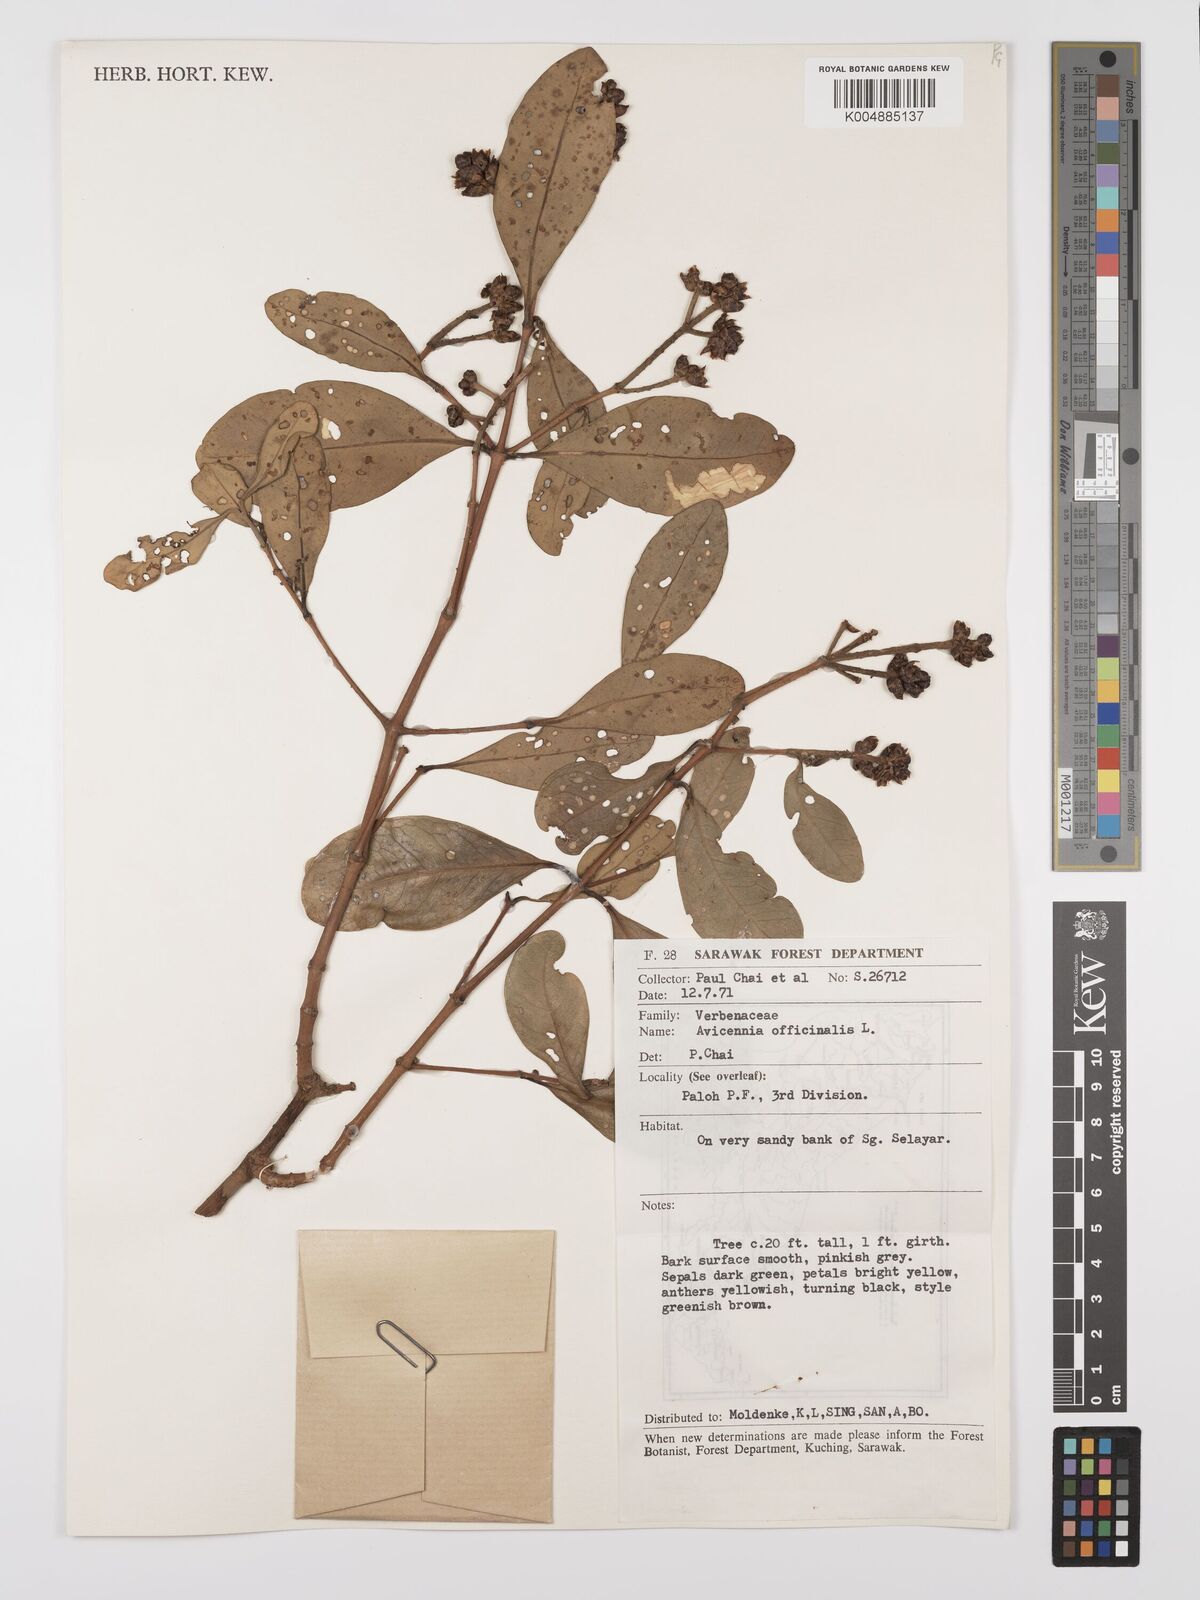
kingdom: Plantae
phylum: Tracheophyta
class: Magnoliopsida
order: Lamiales
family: Acanthaceae
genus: Avicennia
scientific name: Avicennia officinalis
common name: Baen
